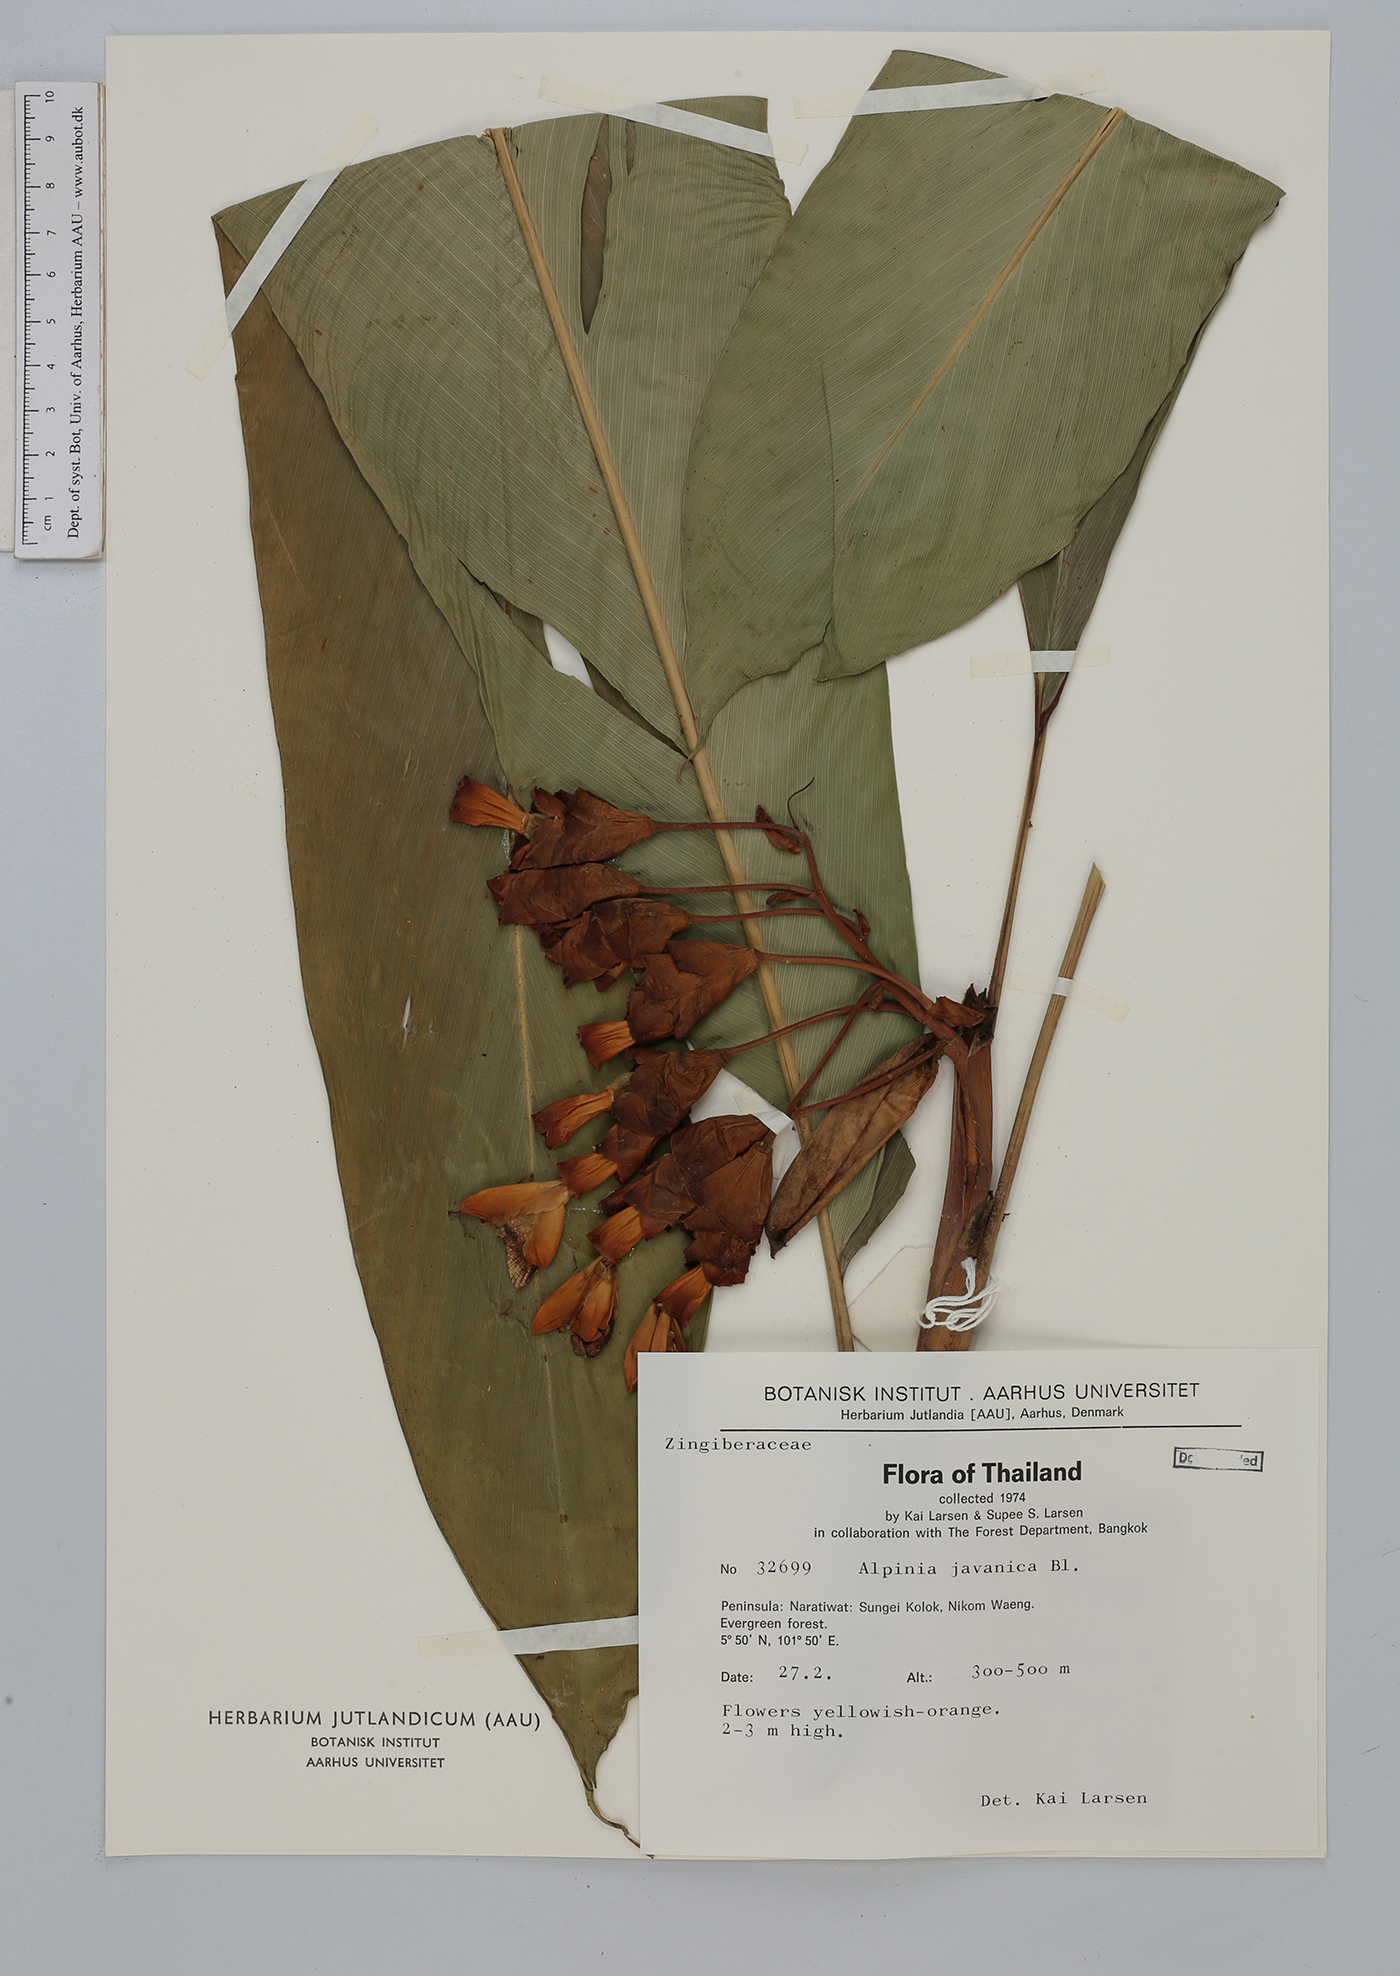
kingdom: Plantae
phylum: Tracheophyta
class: Liliopsida
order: Zingiberales
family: Zingiberaceae
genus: Alpinia
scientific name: Alpinia javanica
